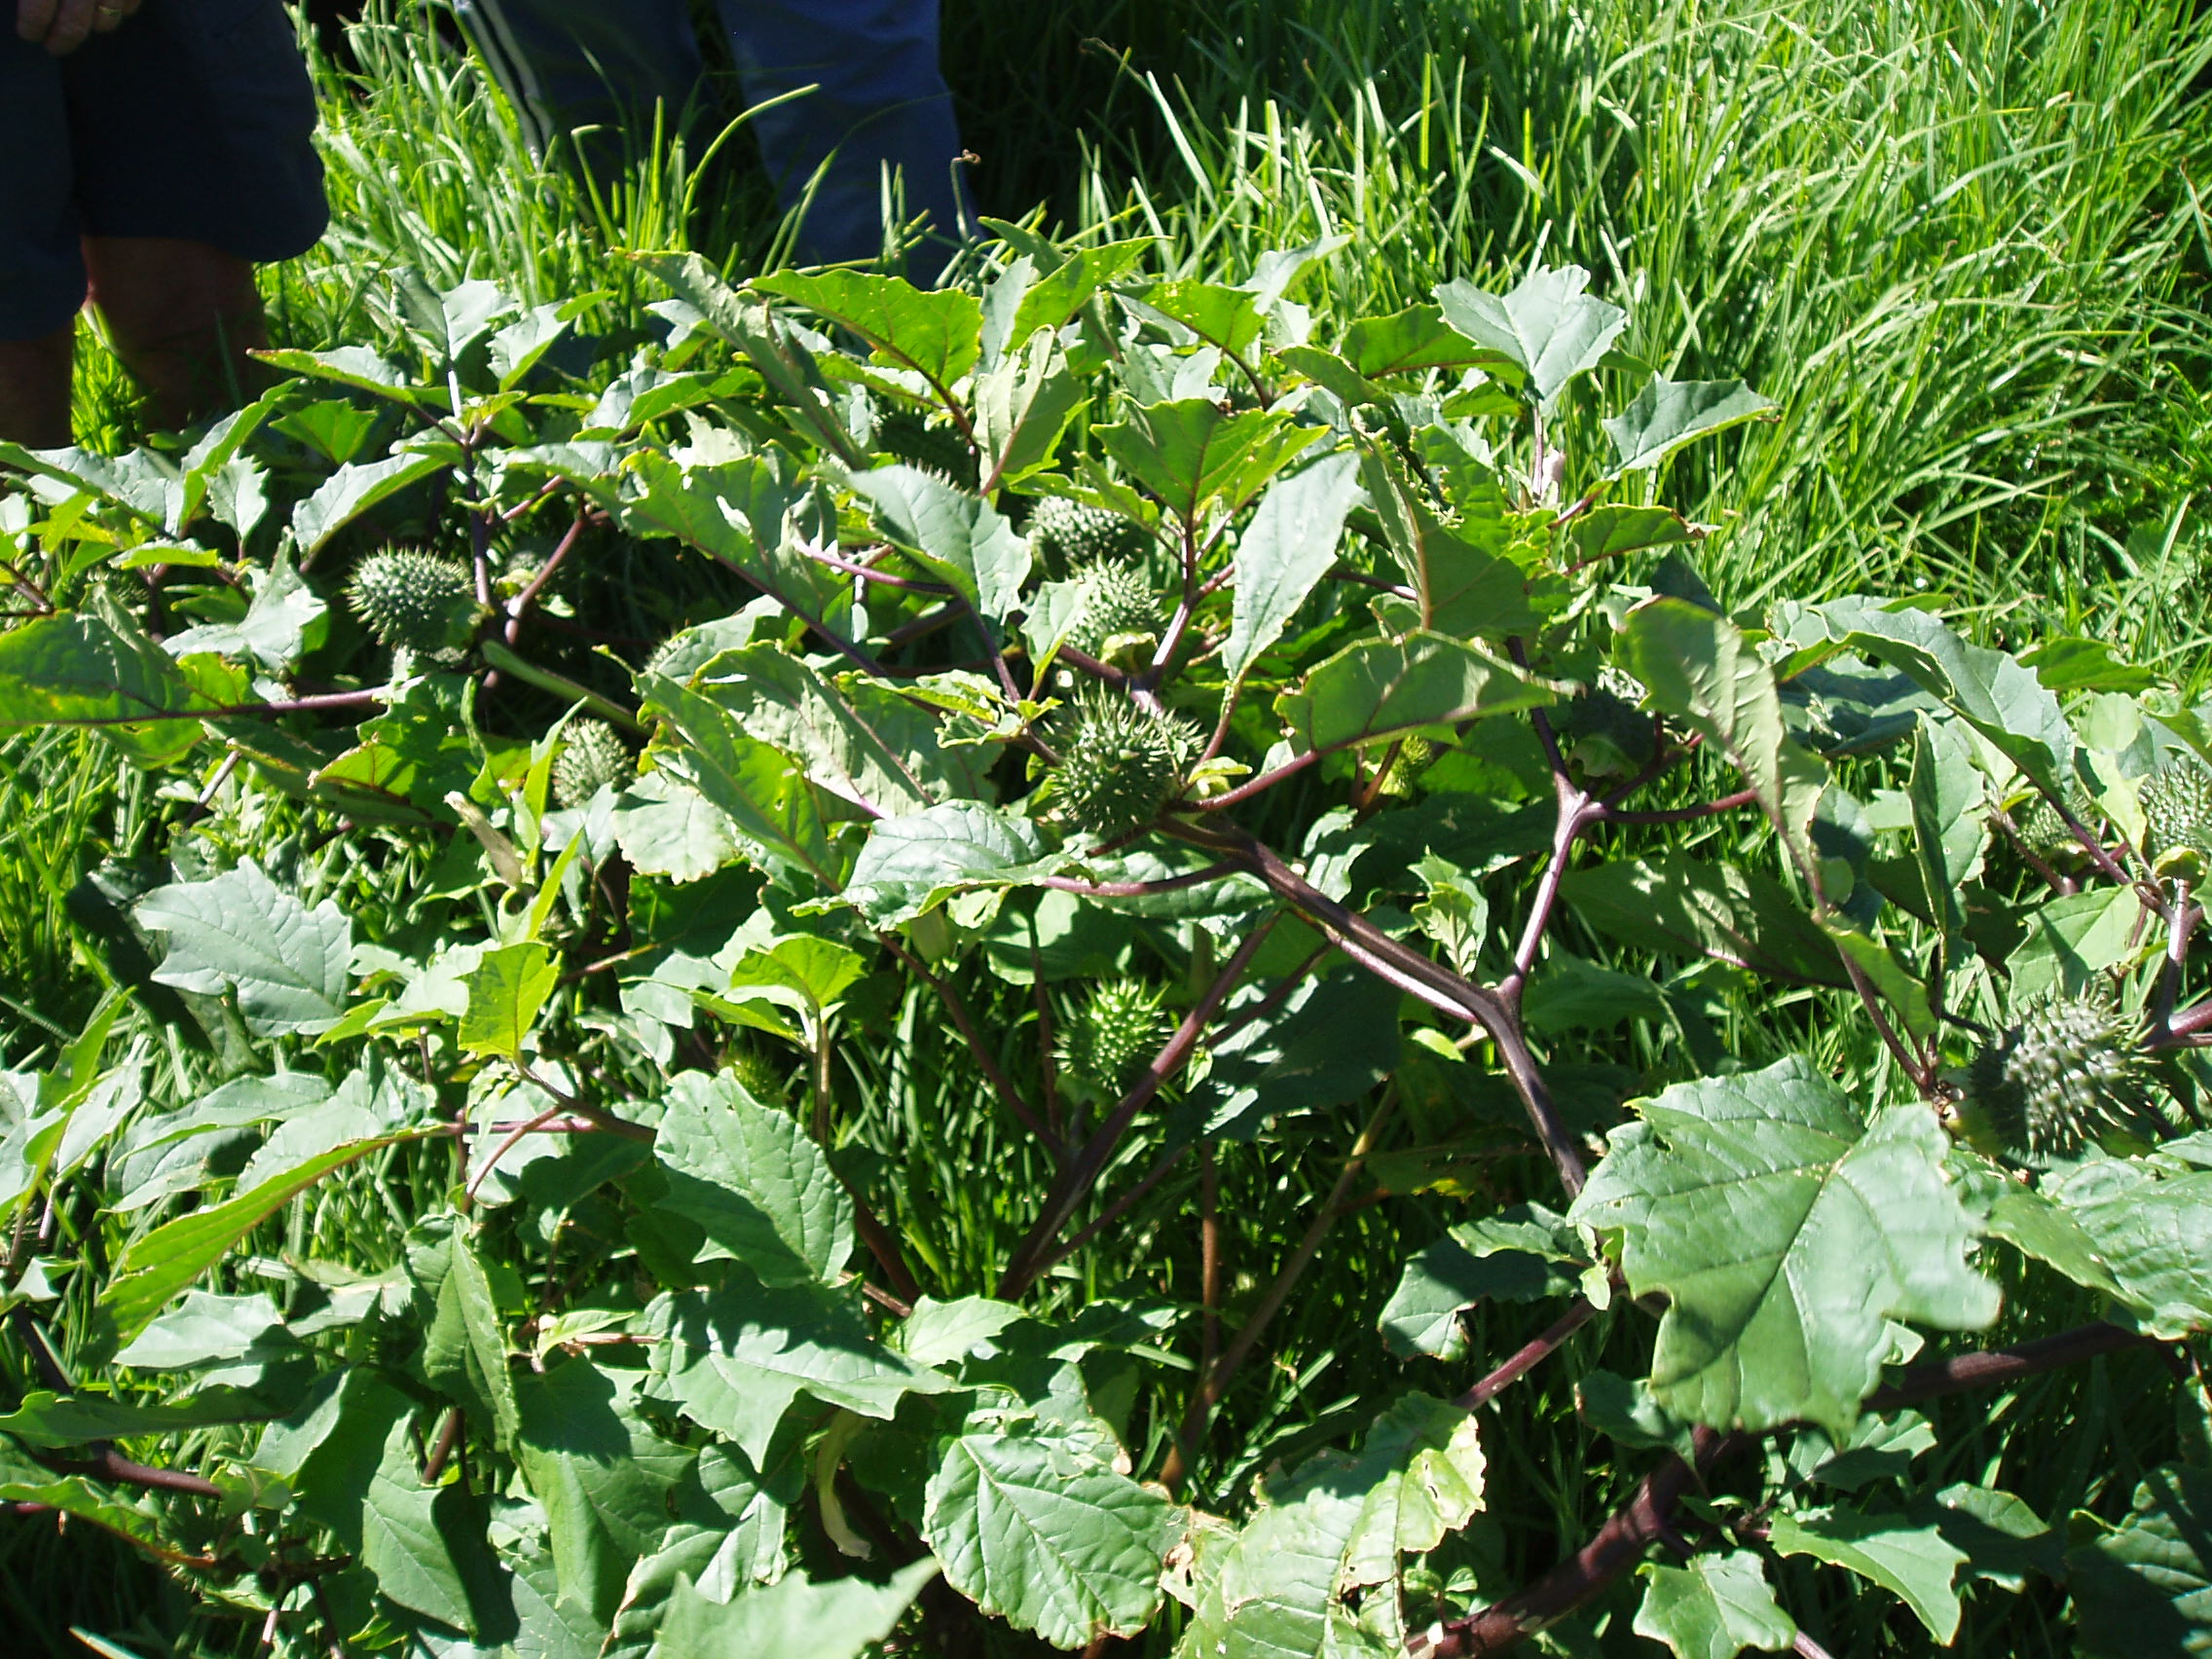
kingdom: Plantae
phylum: Tracheophyta
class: Magnoliopsida
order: Solanales
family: Solanaceae
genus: Datura
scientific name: Datura stramonium
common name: Thorn-apple
